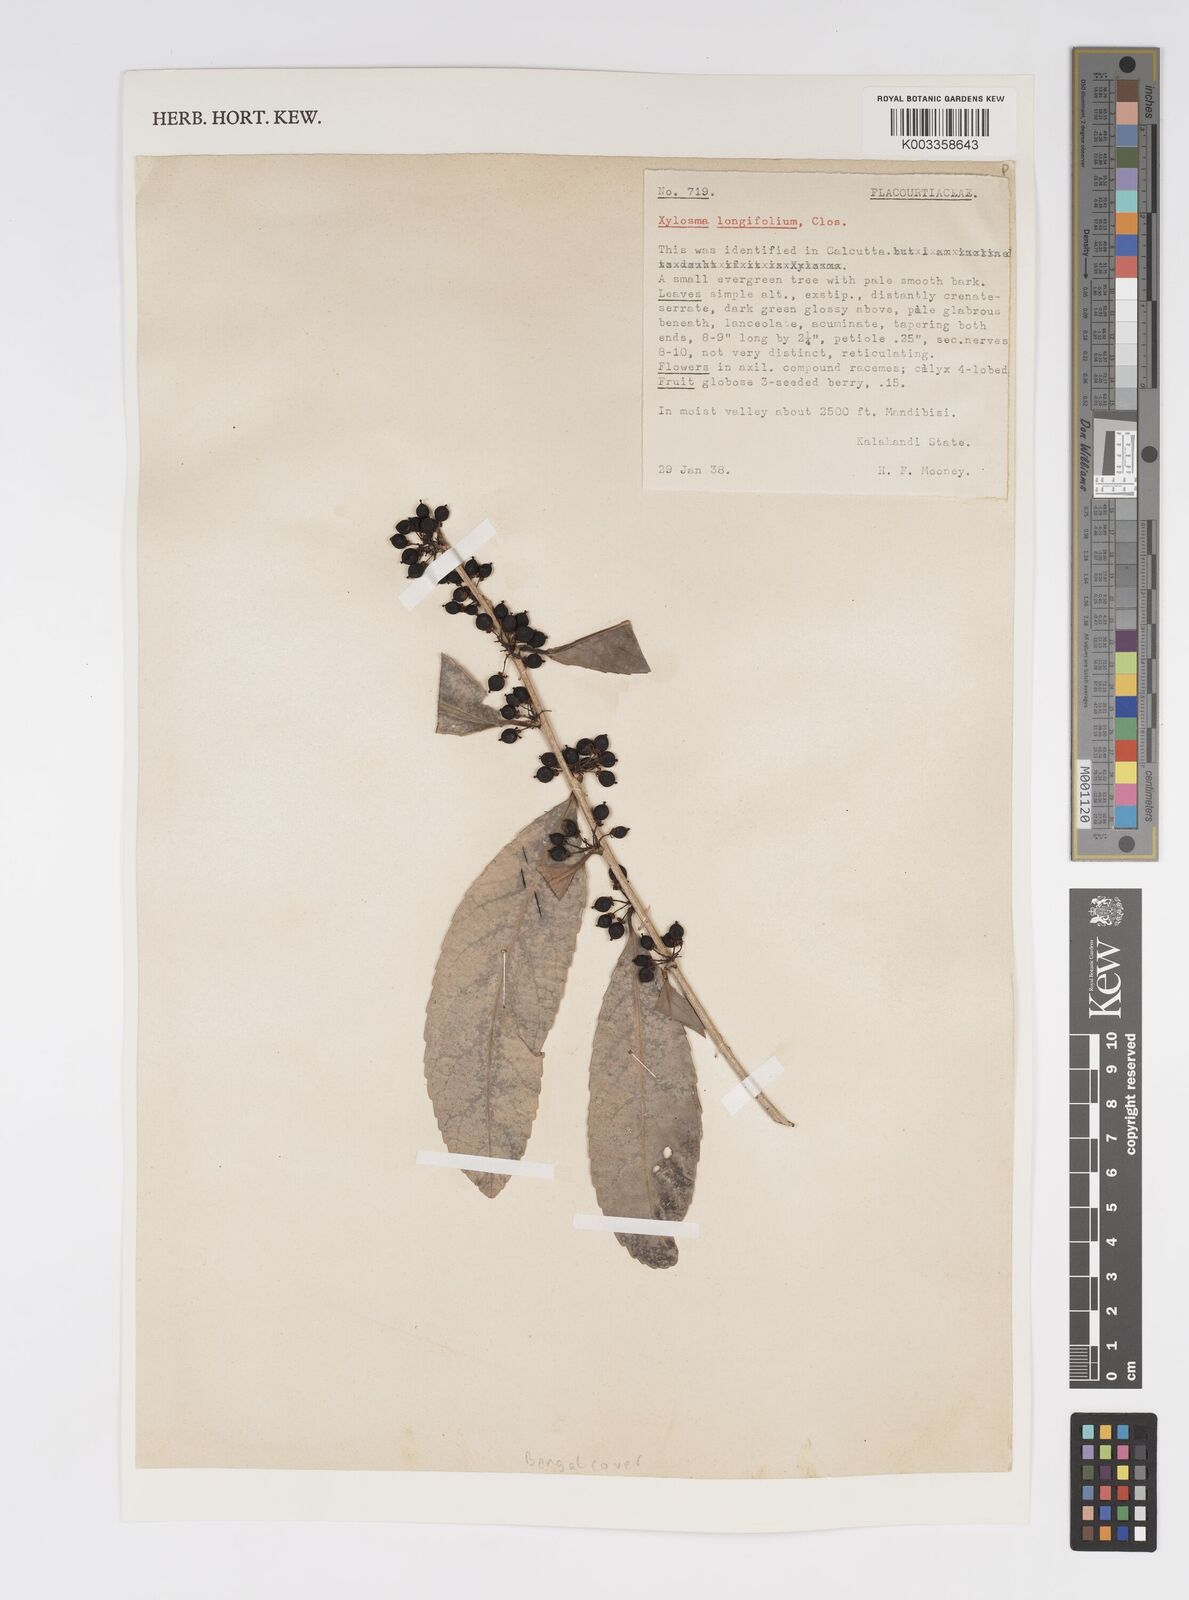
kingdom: Plantae
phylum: Tracheophyta
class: Magnoliopsida
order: Malpighiales
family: Salicaceae
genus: Xylosma
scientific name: Xylosma longifolia
